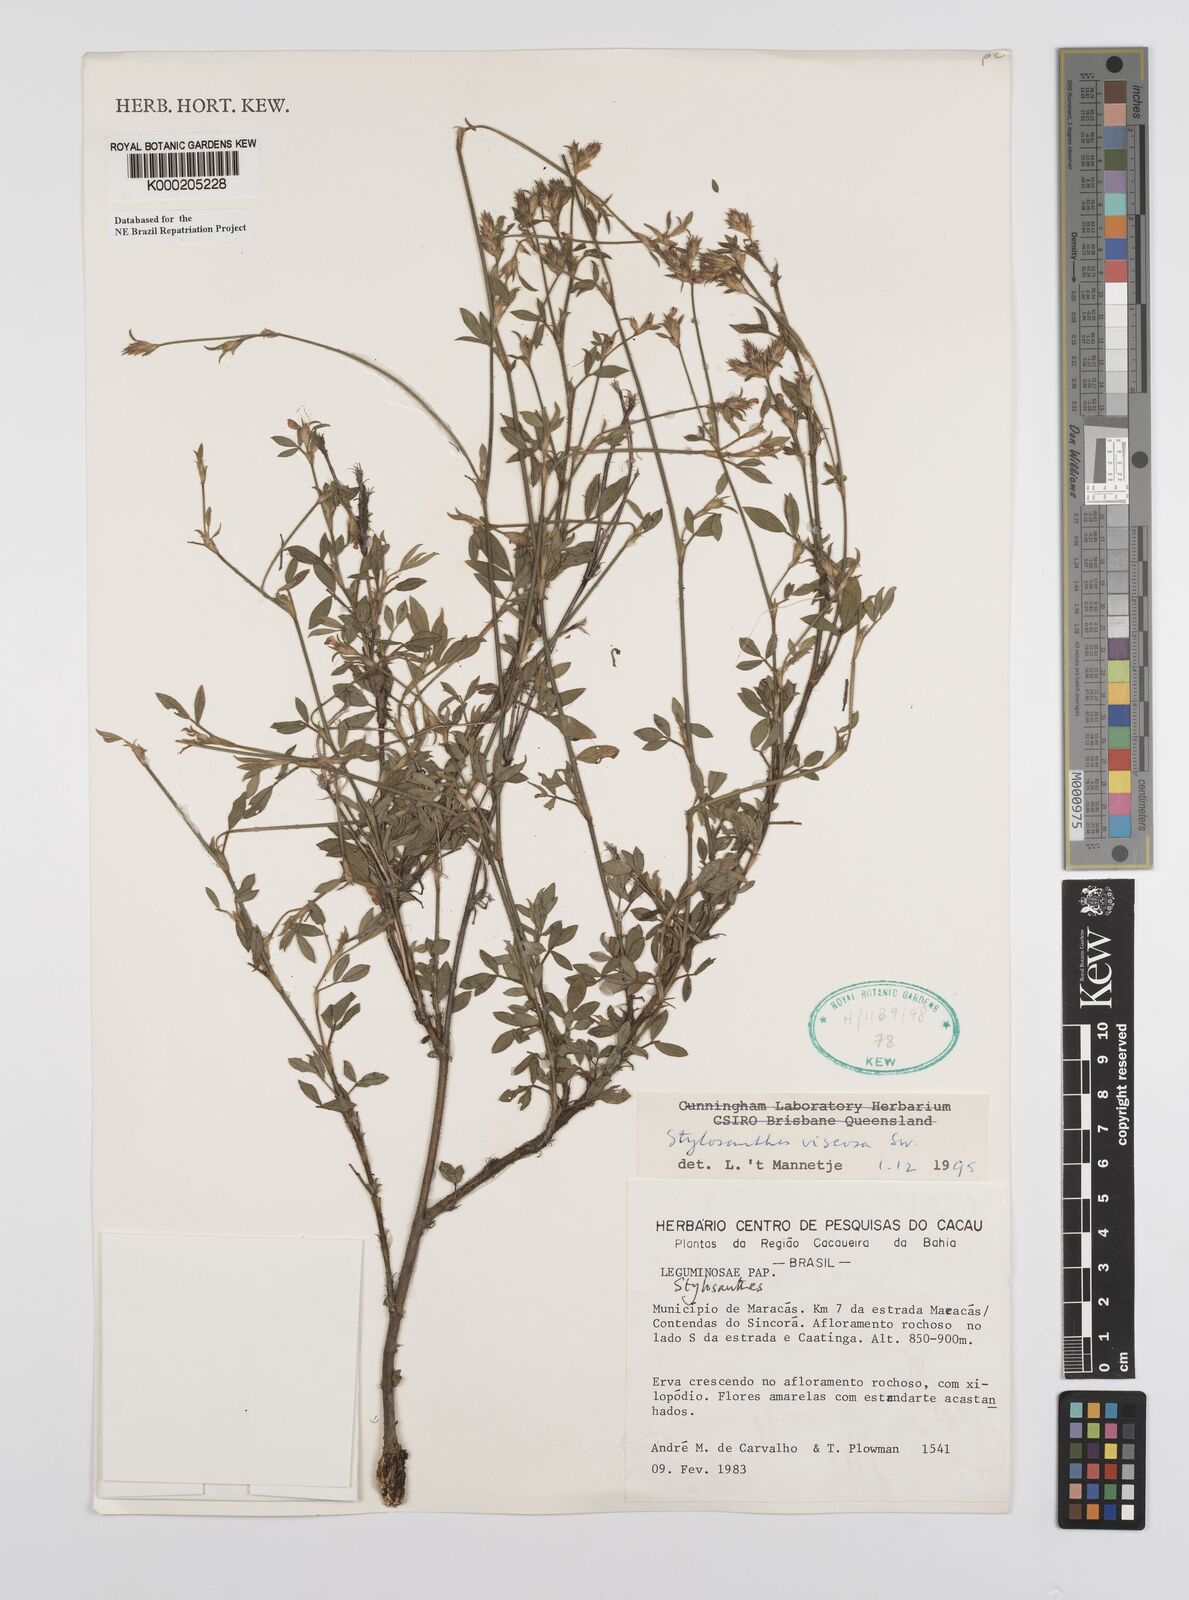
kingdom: Plantae
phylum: Tracheophyta
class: Magnoliopsida
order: Fabales
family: Fabaceae
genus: Stylosanthes
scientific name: Stylosanthes viscosa
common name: Viscid pencil-flower
